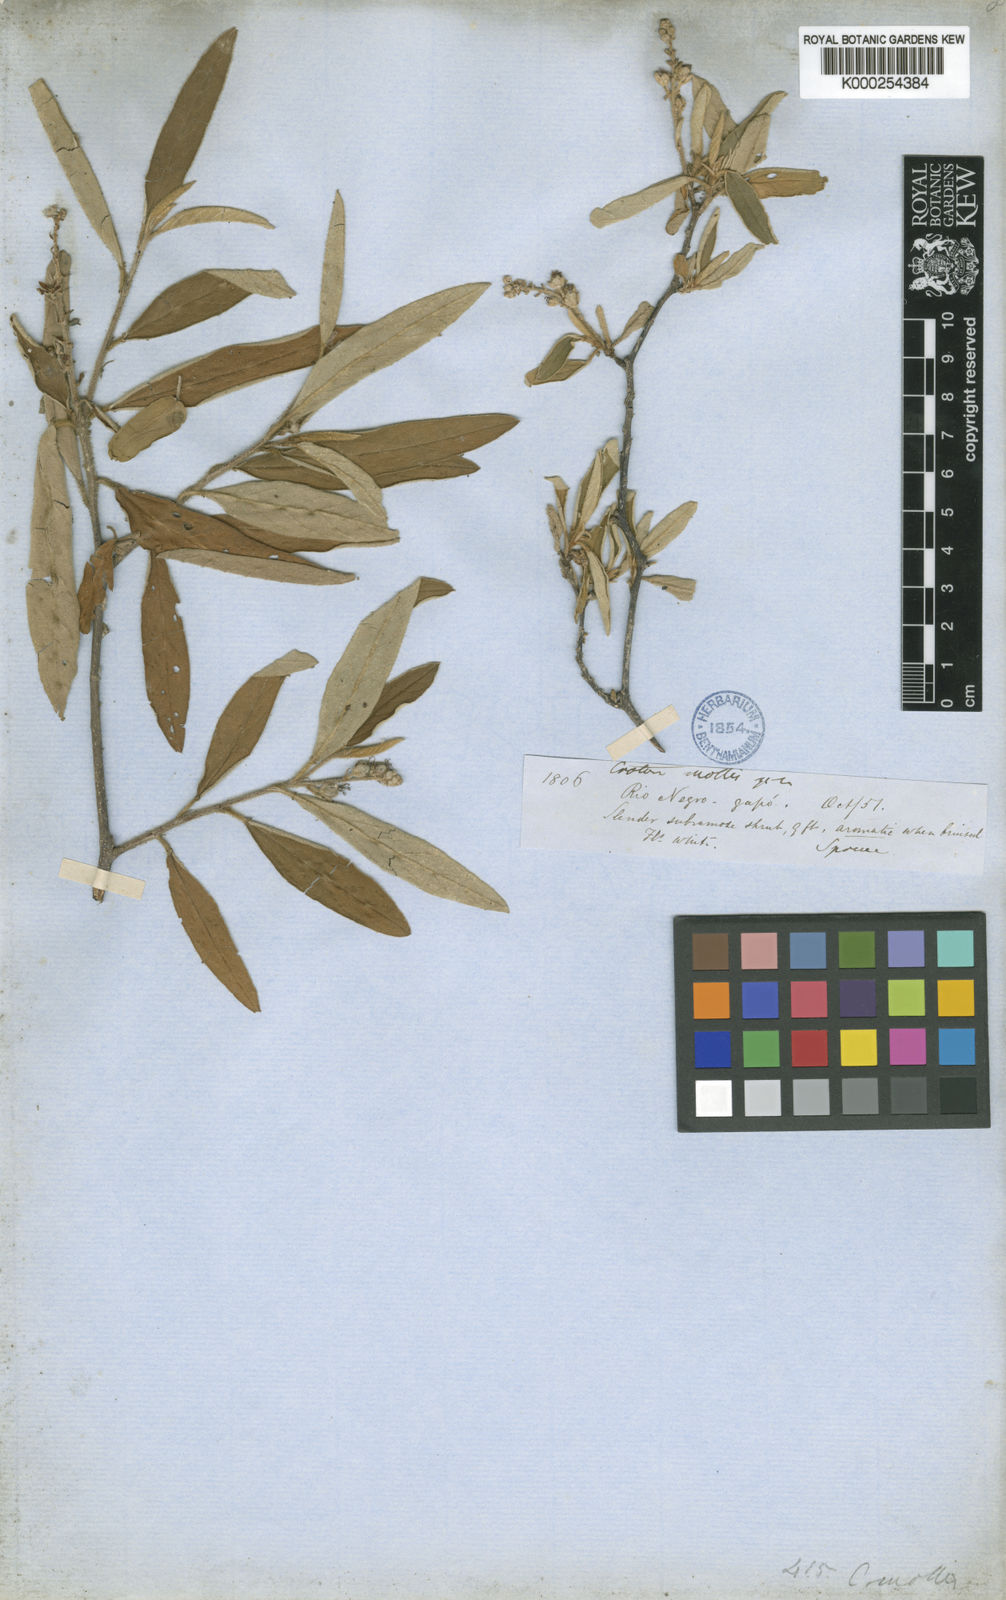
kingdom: Plantae
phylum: Tracheophyta
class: Magnoliopsida
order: Malpighiales
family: Euphorbiaceae
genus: Croton
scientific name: Croton mollis
